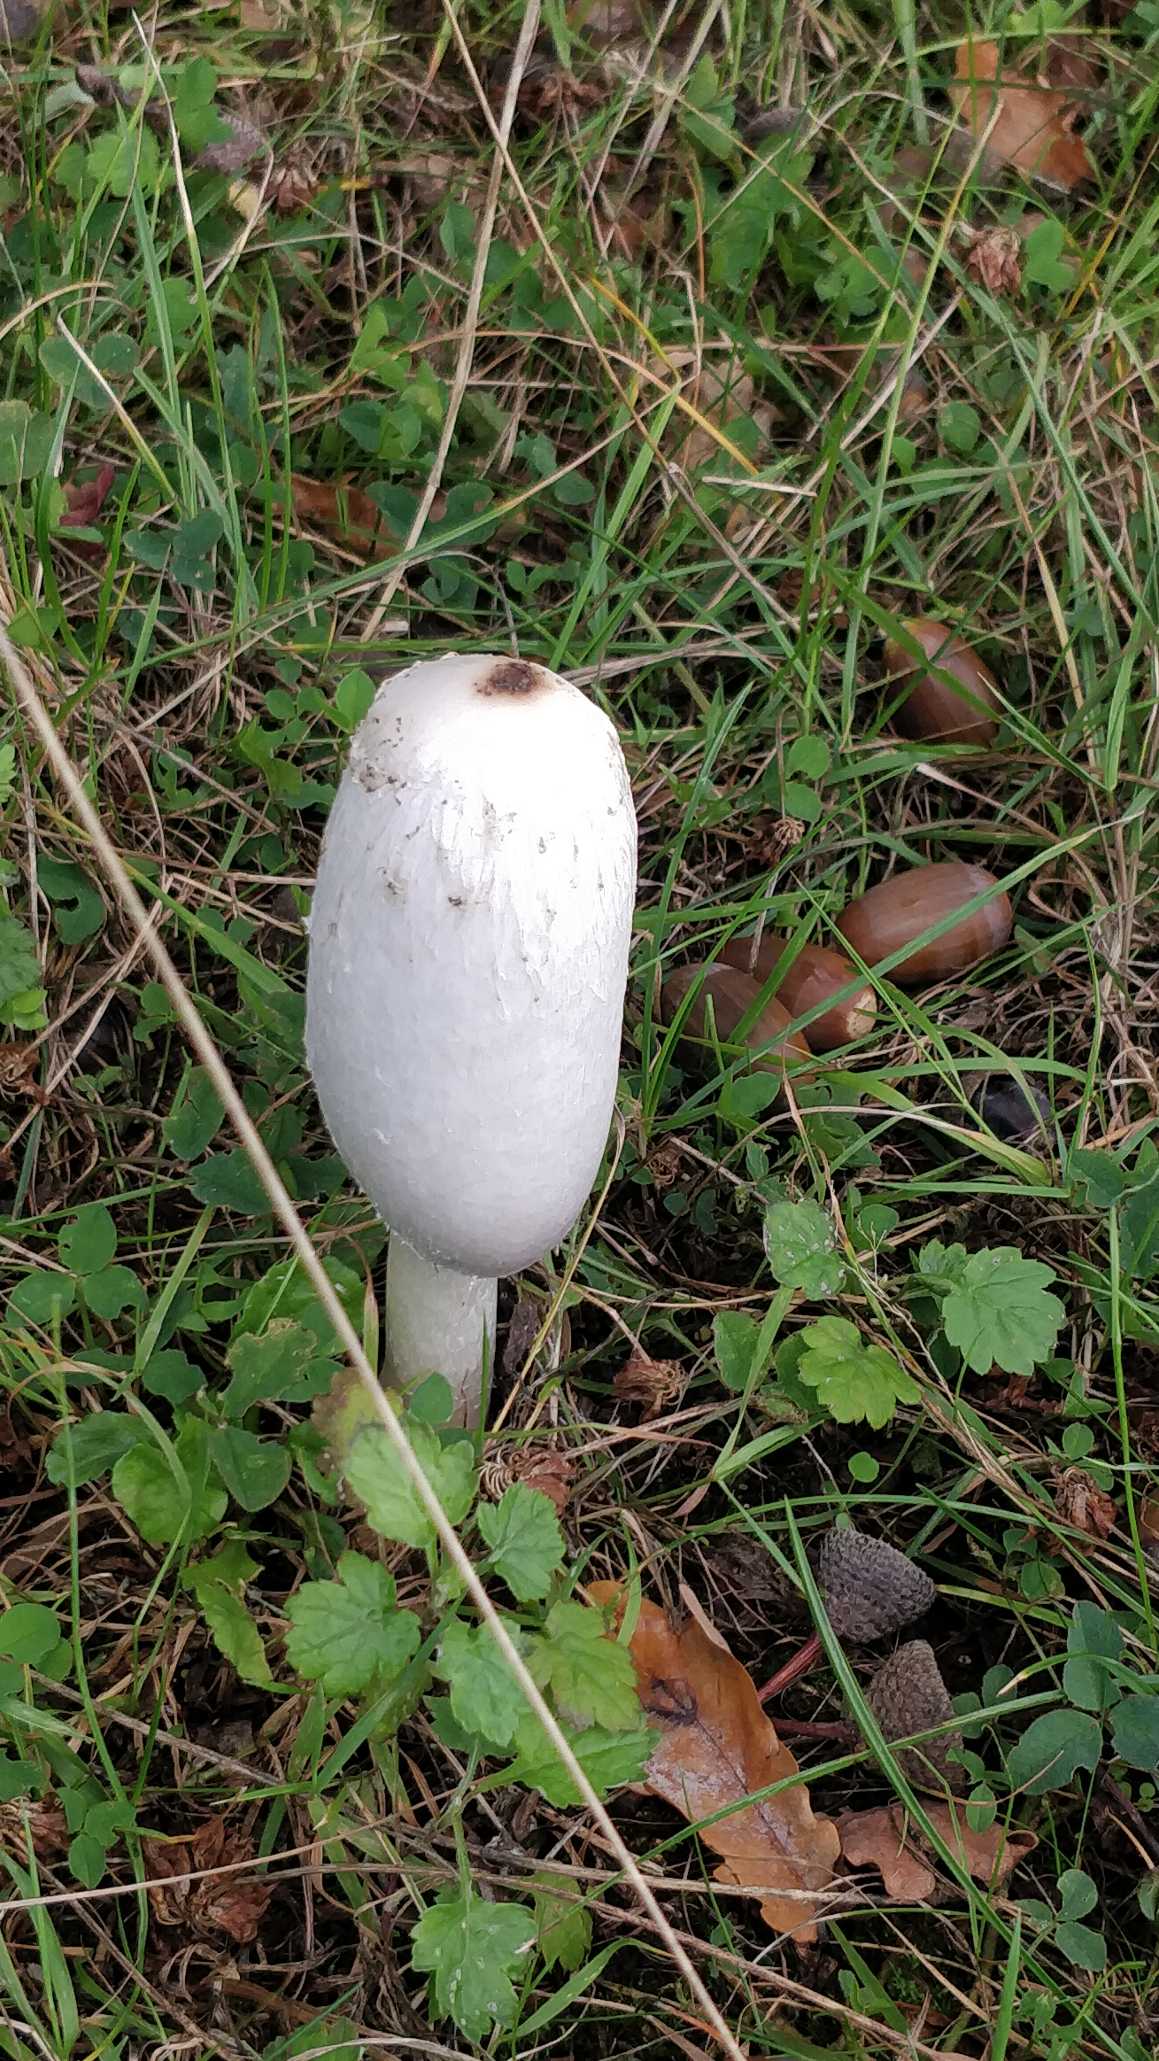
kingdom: Fungi
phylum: Basidiomycota
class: Agaricomycetes
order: Agaricales
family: Agaricaceae
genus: Coprinus
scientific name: Coprinus comatus
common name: Stor parykhat
